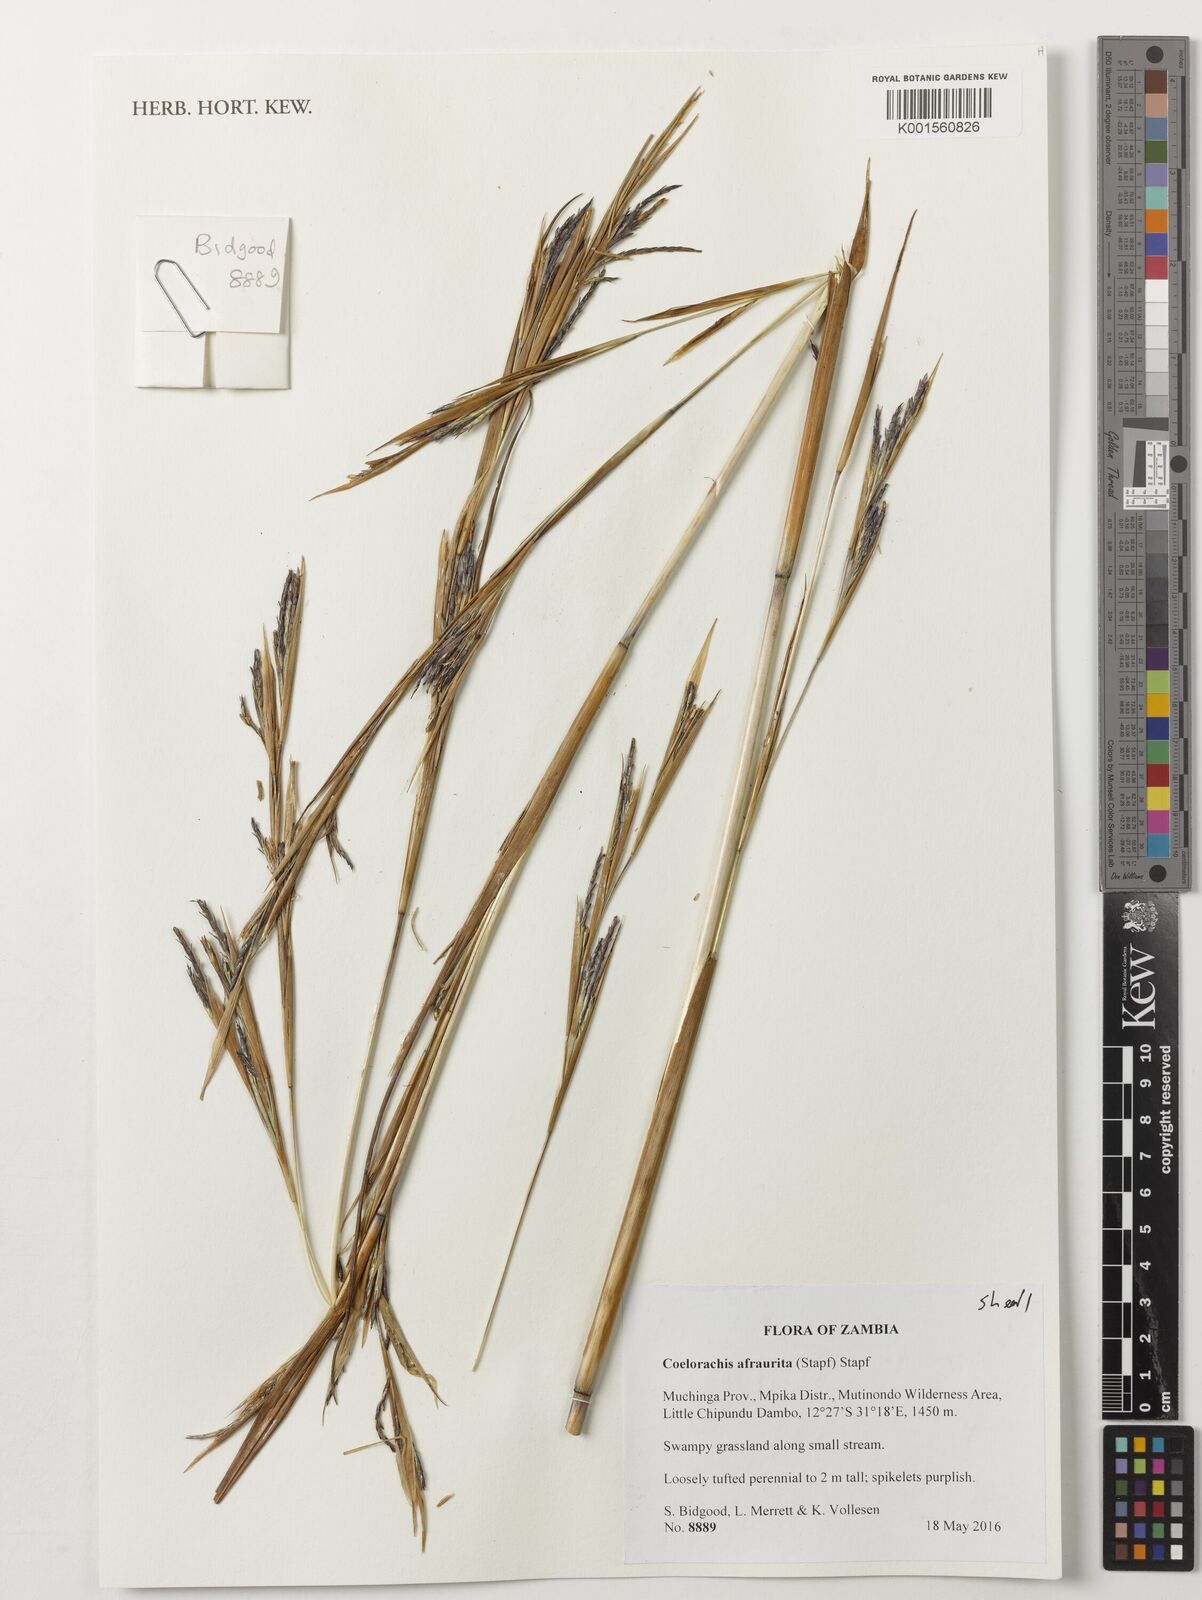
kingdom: Plantae
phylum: Tracheophyta
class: Liliopsida
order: Poales
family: Poaceae
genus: Rottboellia
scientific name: Rottboellia afraurita
